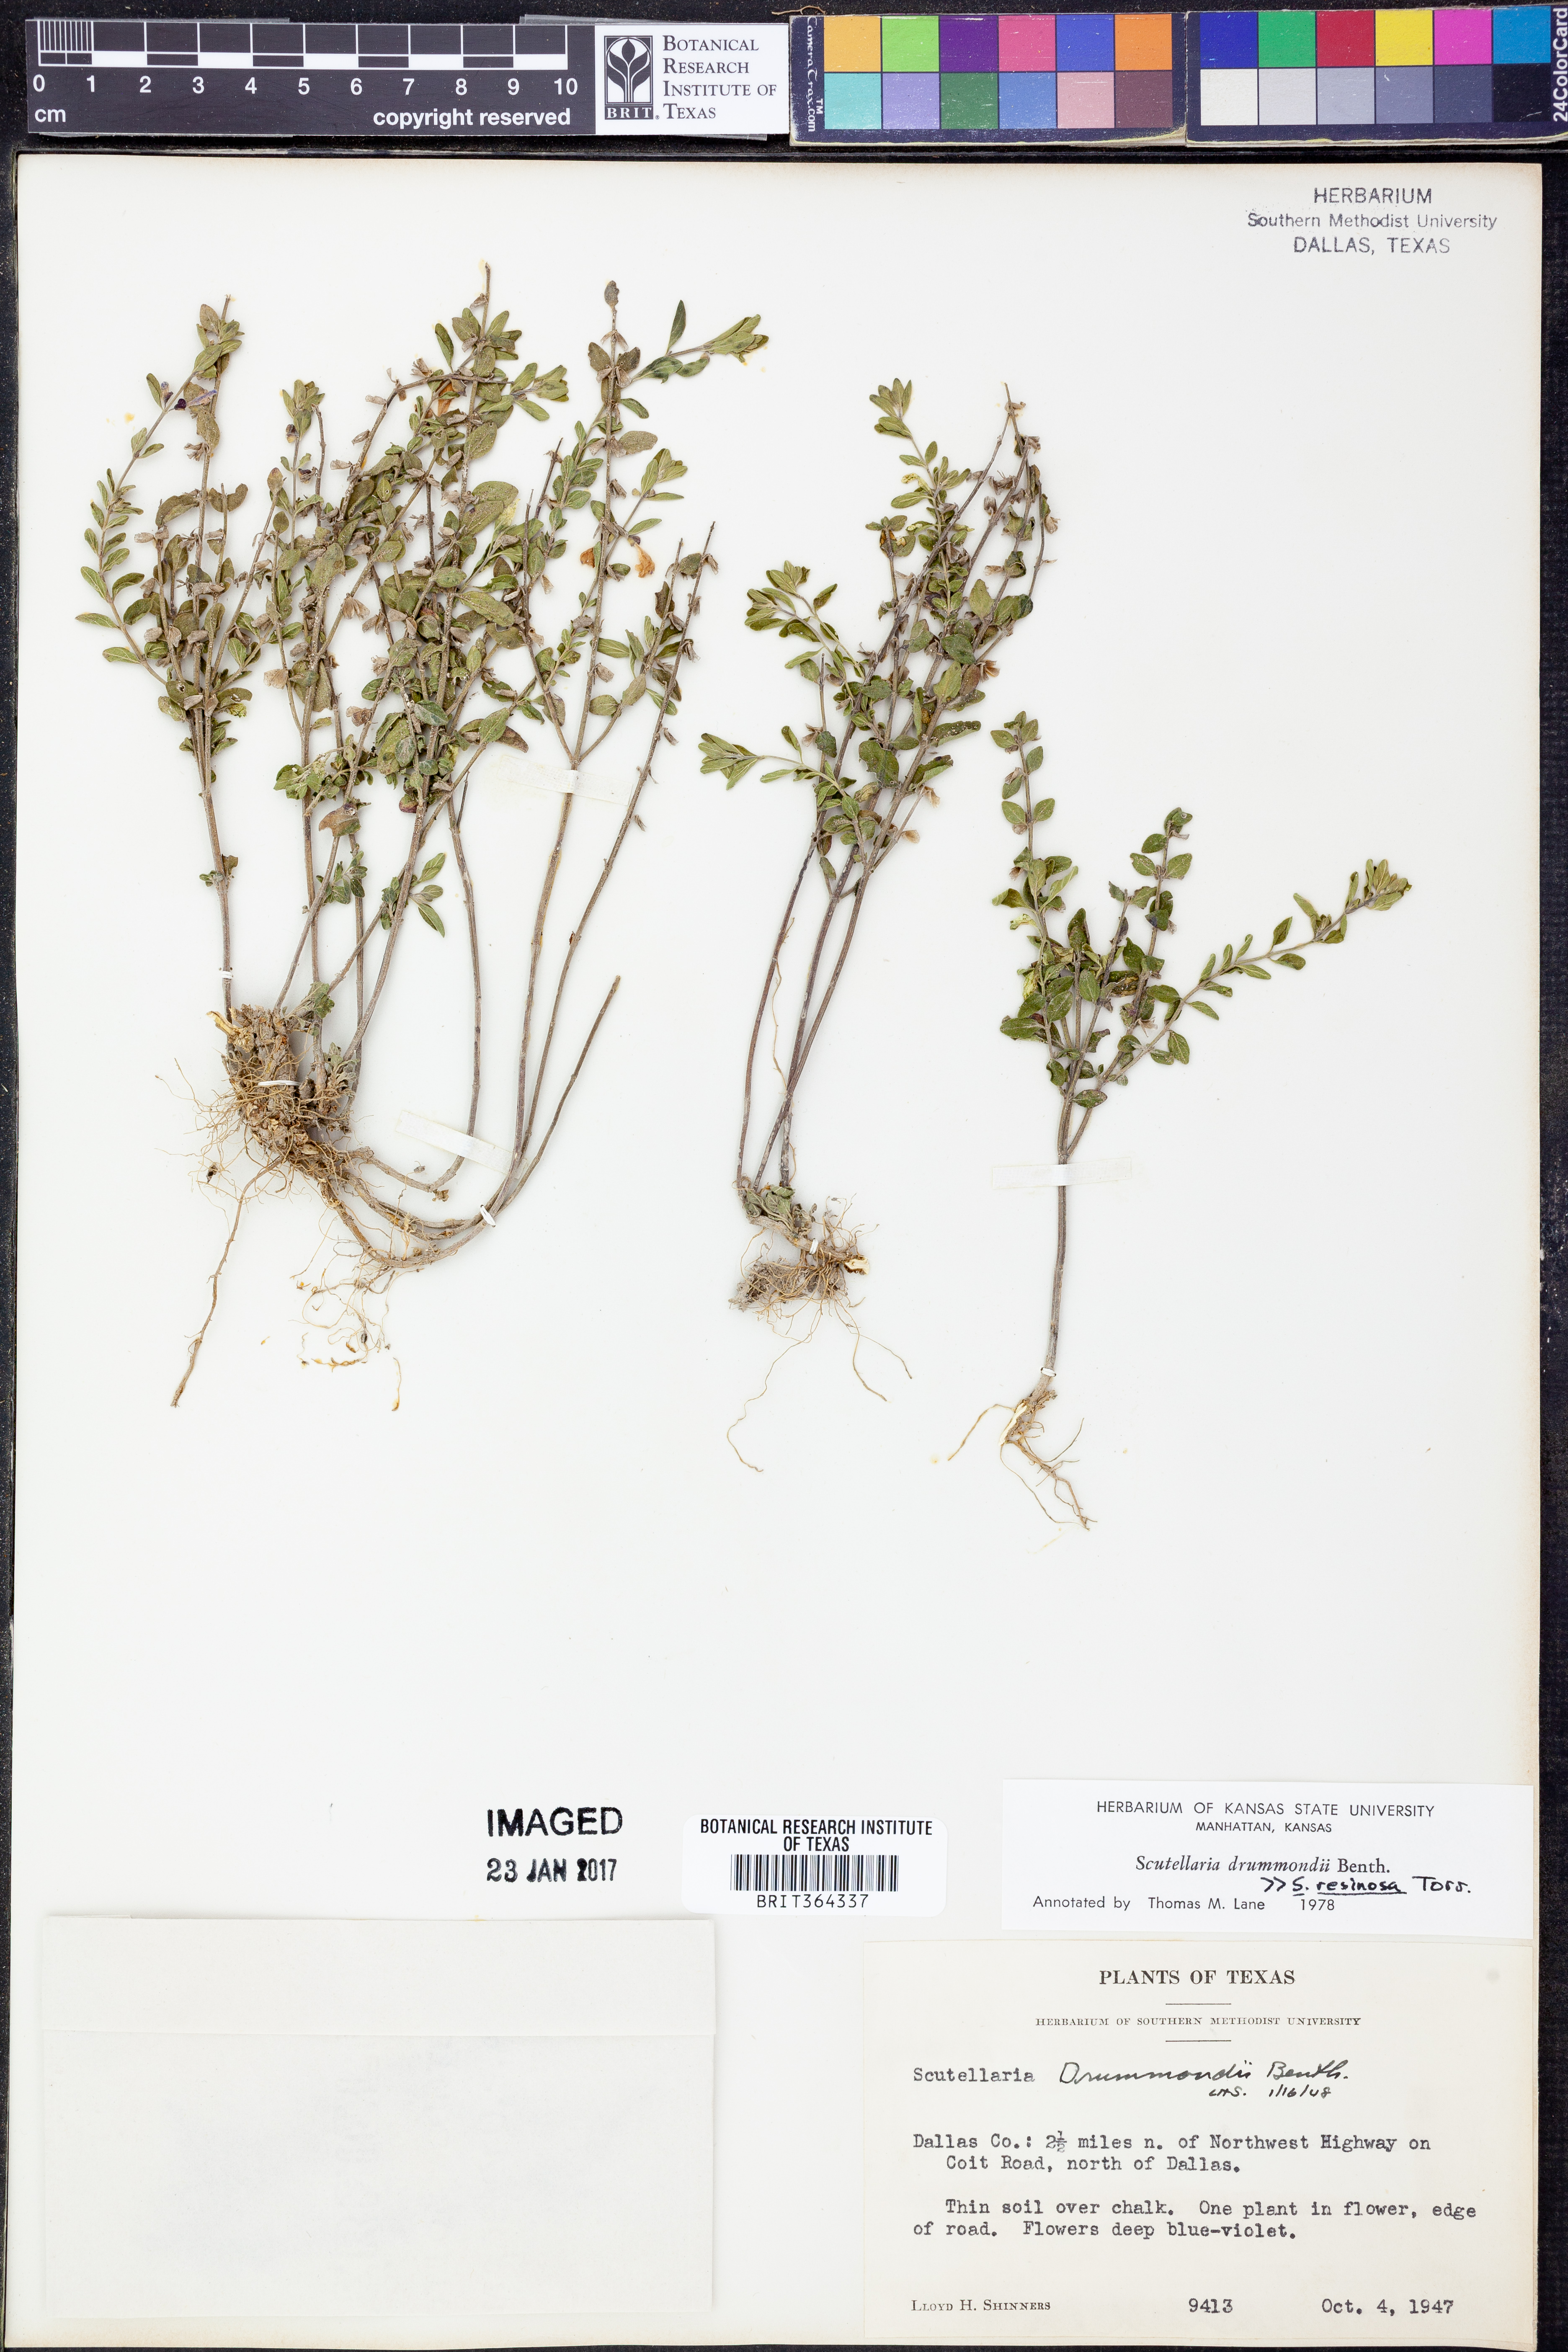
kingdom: Plantae
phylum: Tracheophyta
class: Magnoliopsida
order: Lamiales
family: Lamiaceae
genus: Scutellaria
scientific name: Scutellaria drummondii
